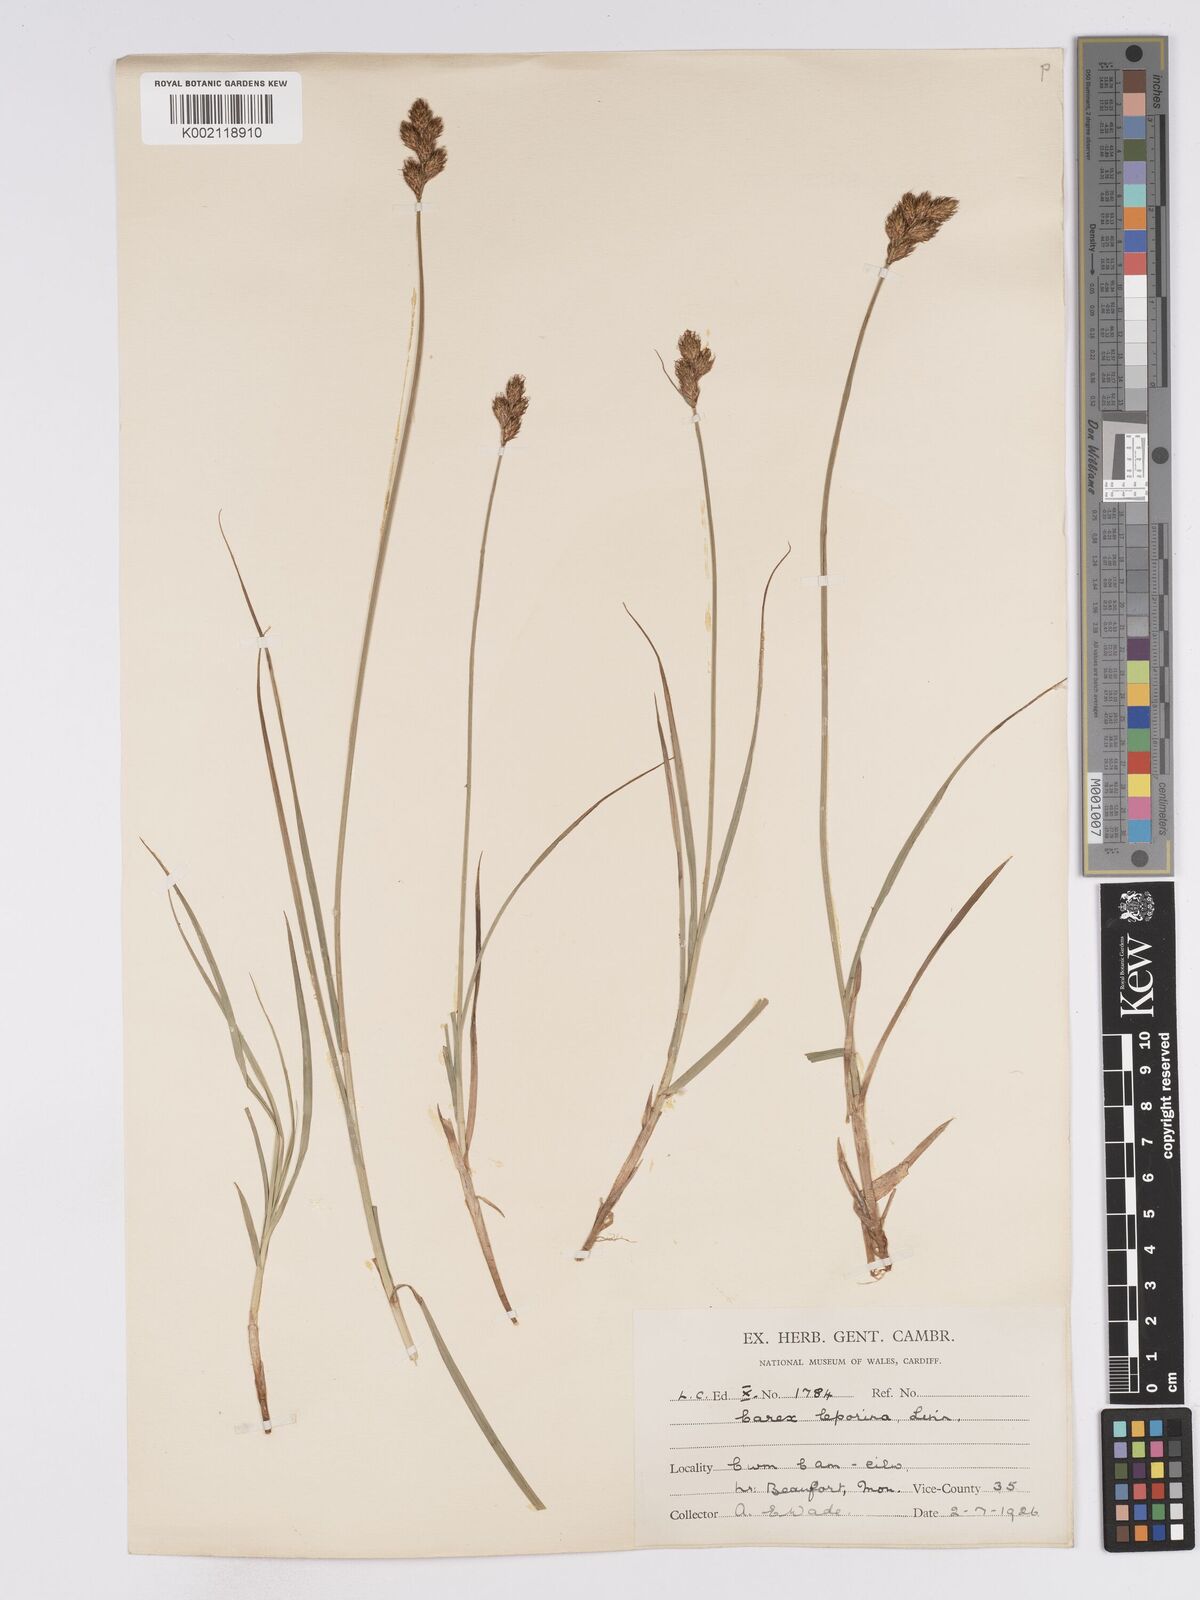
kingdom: Plantae
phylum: Tracheophyta
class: Liliopsida
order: Poales
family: Cyperaceae
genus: Carex
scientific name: Carex leporina
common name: Oval sedge
